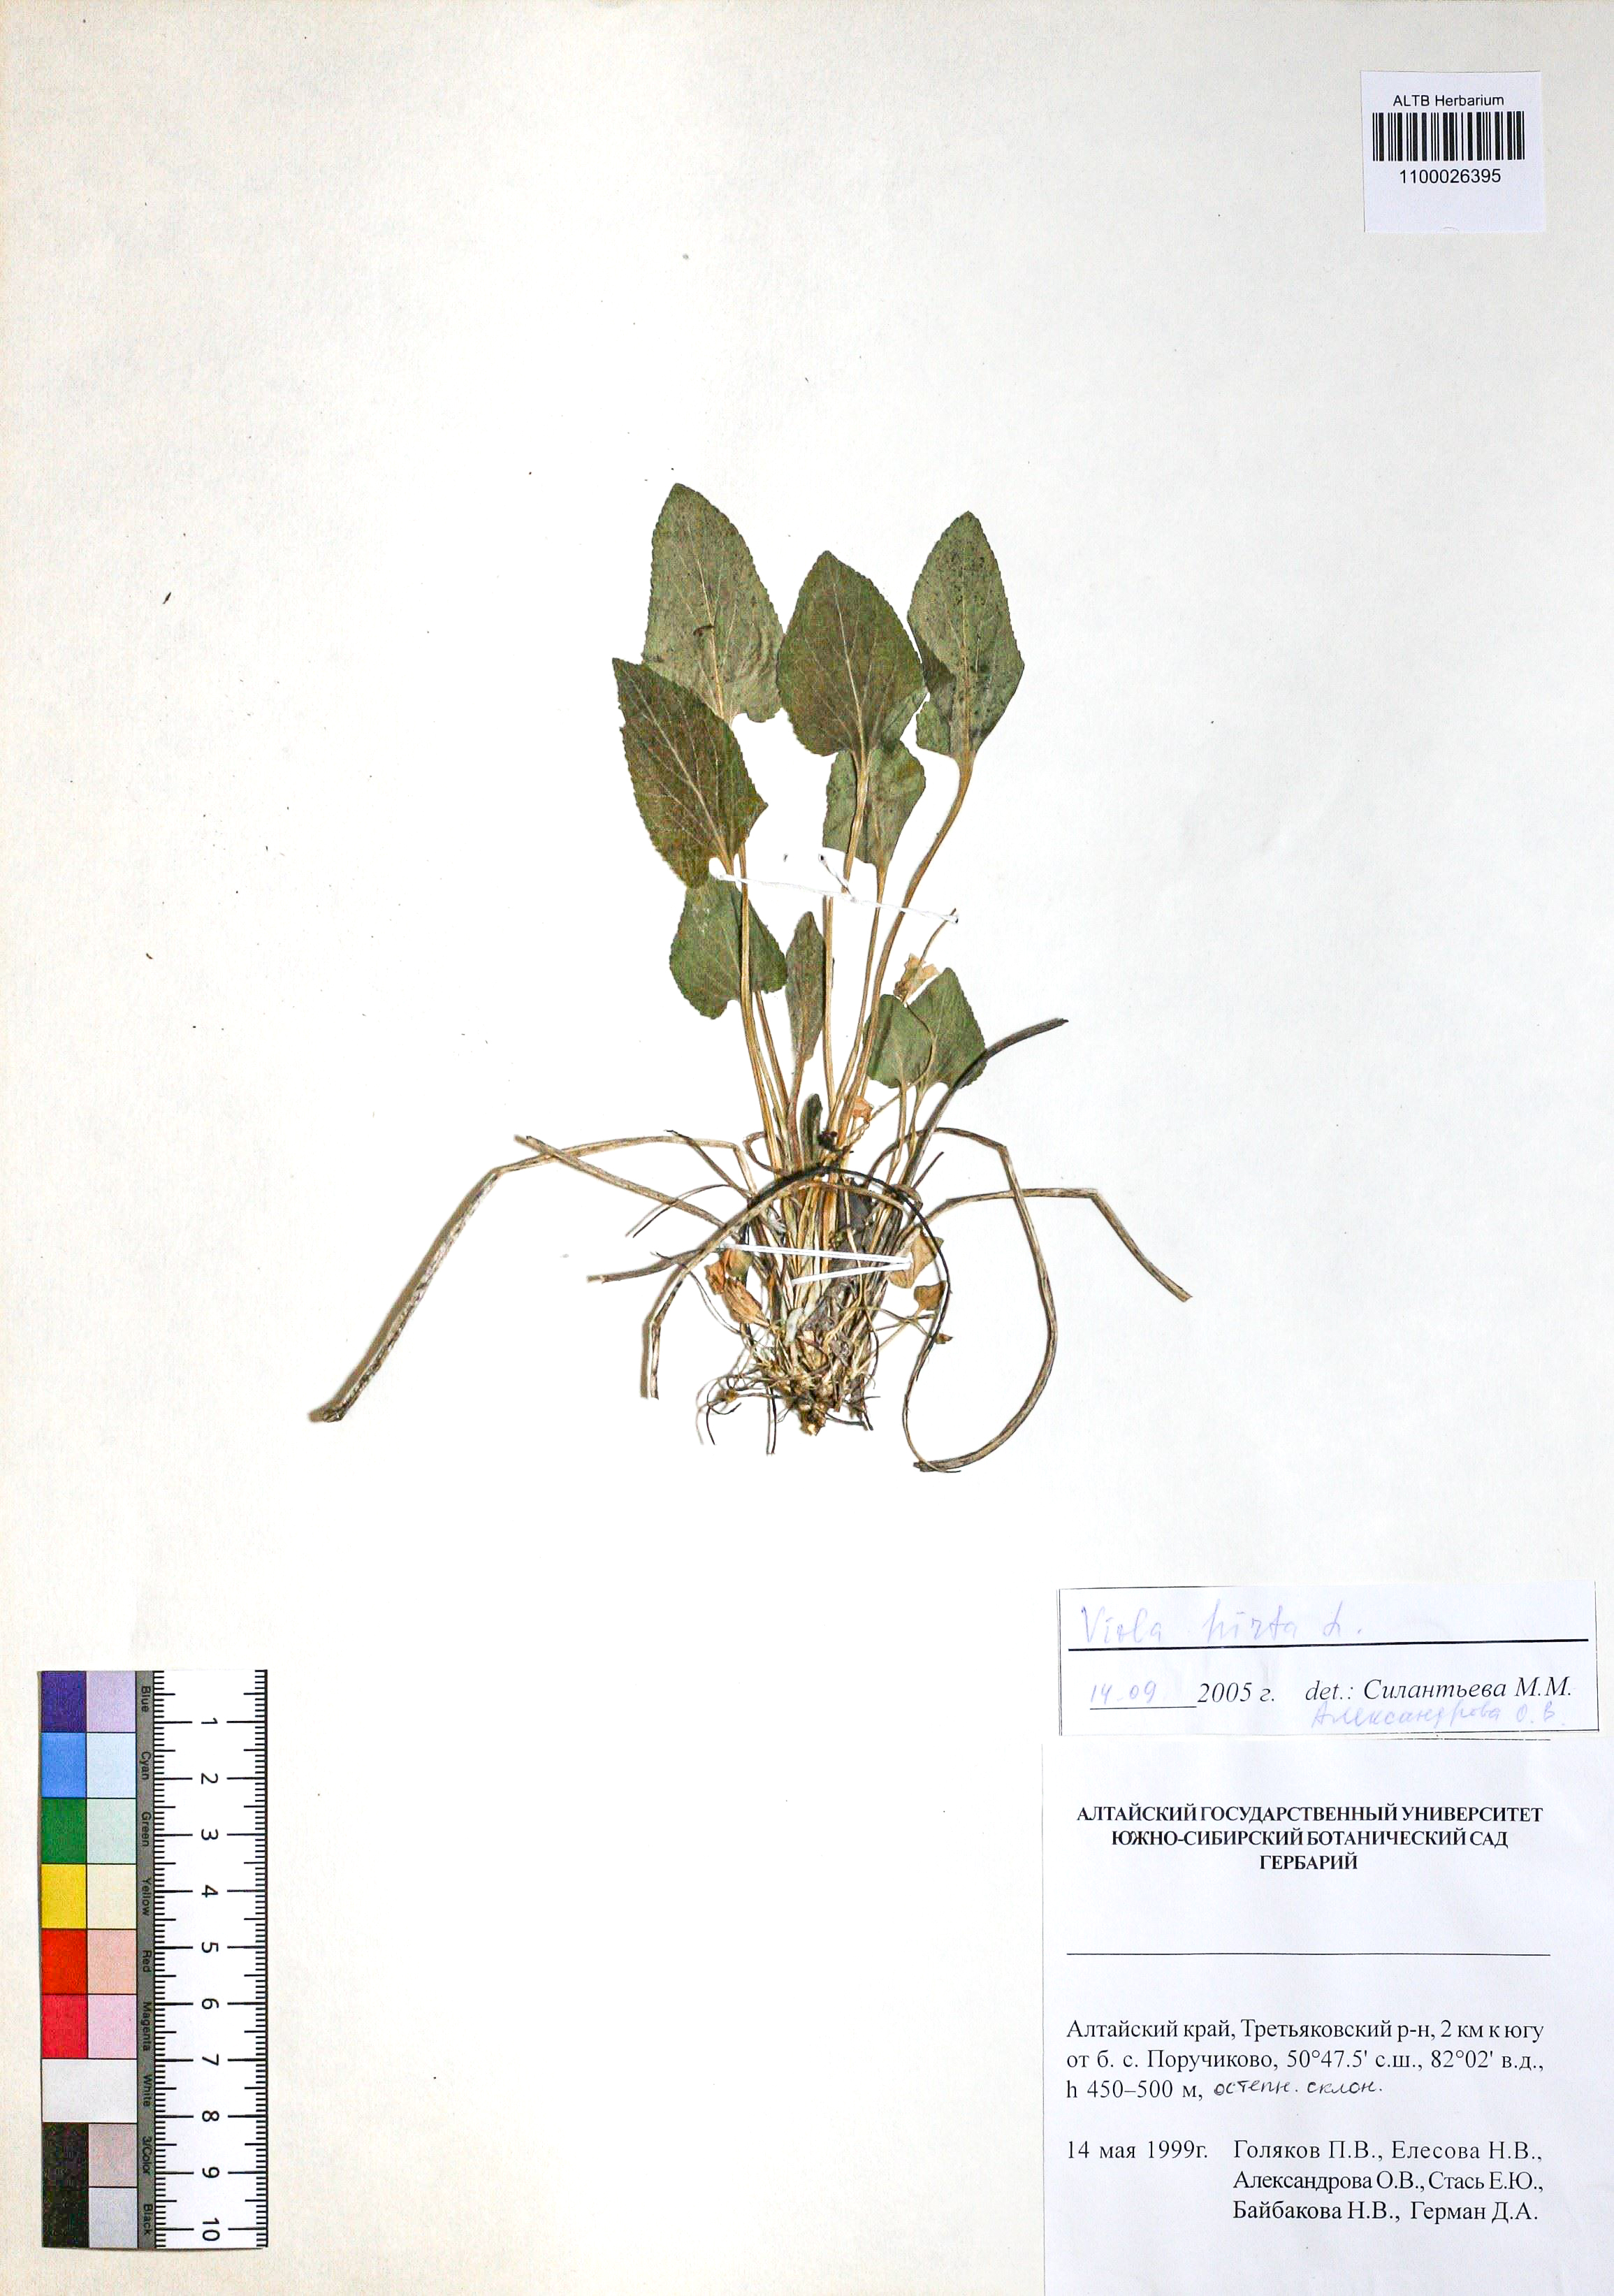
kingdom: Plantae
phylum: Tracheophyta
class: Magnoliopsida
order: Malpighiales
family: Violaceae
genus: Viola
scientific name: Viola hirta
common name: Hairy violet
